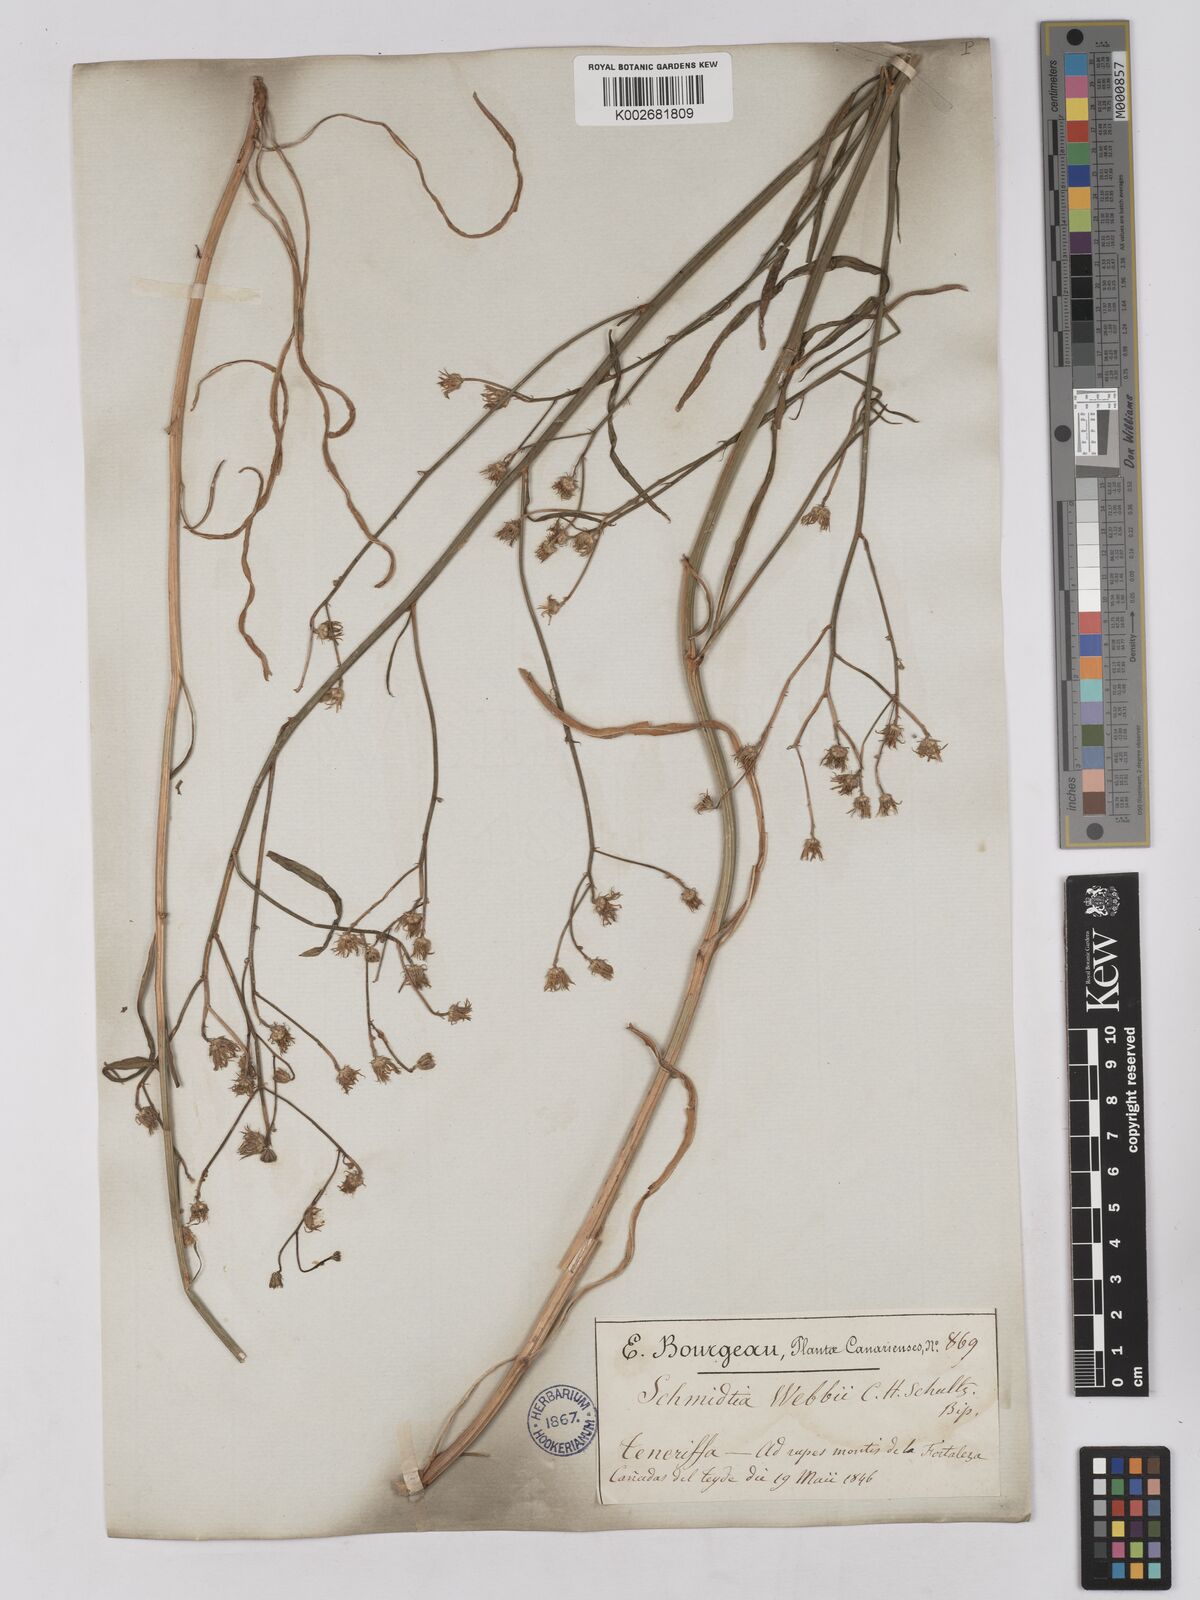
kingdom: Plantae
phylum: Tracheophyta
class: Magnoliopsida
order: Asterales
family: Asteraceae
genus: Tolpis
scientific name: Tolpis webbii
